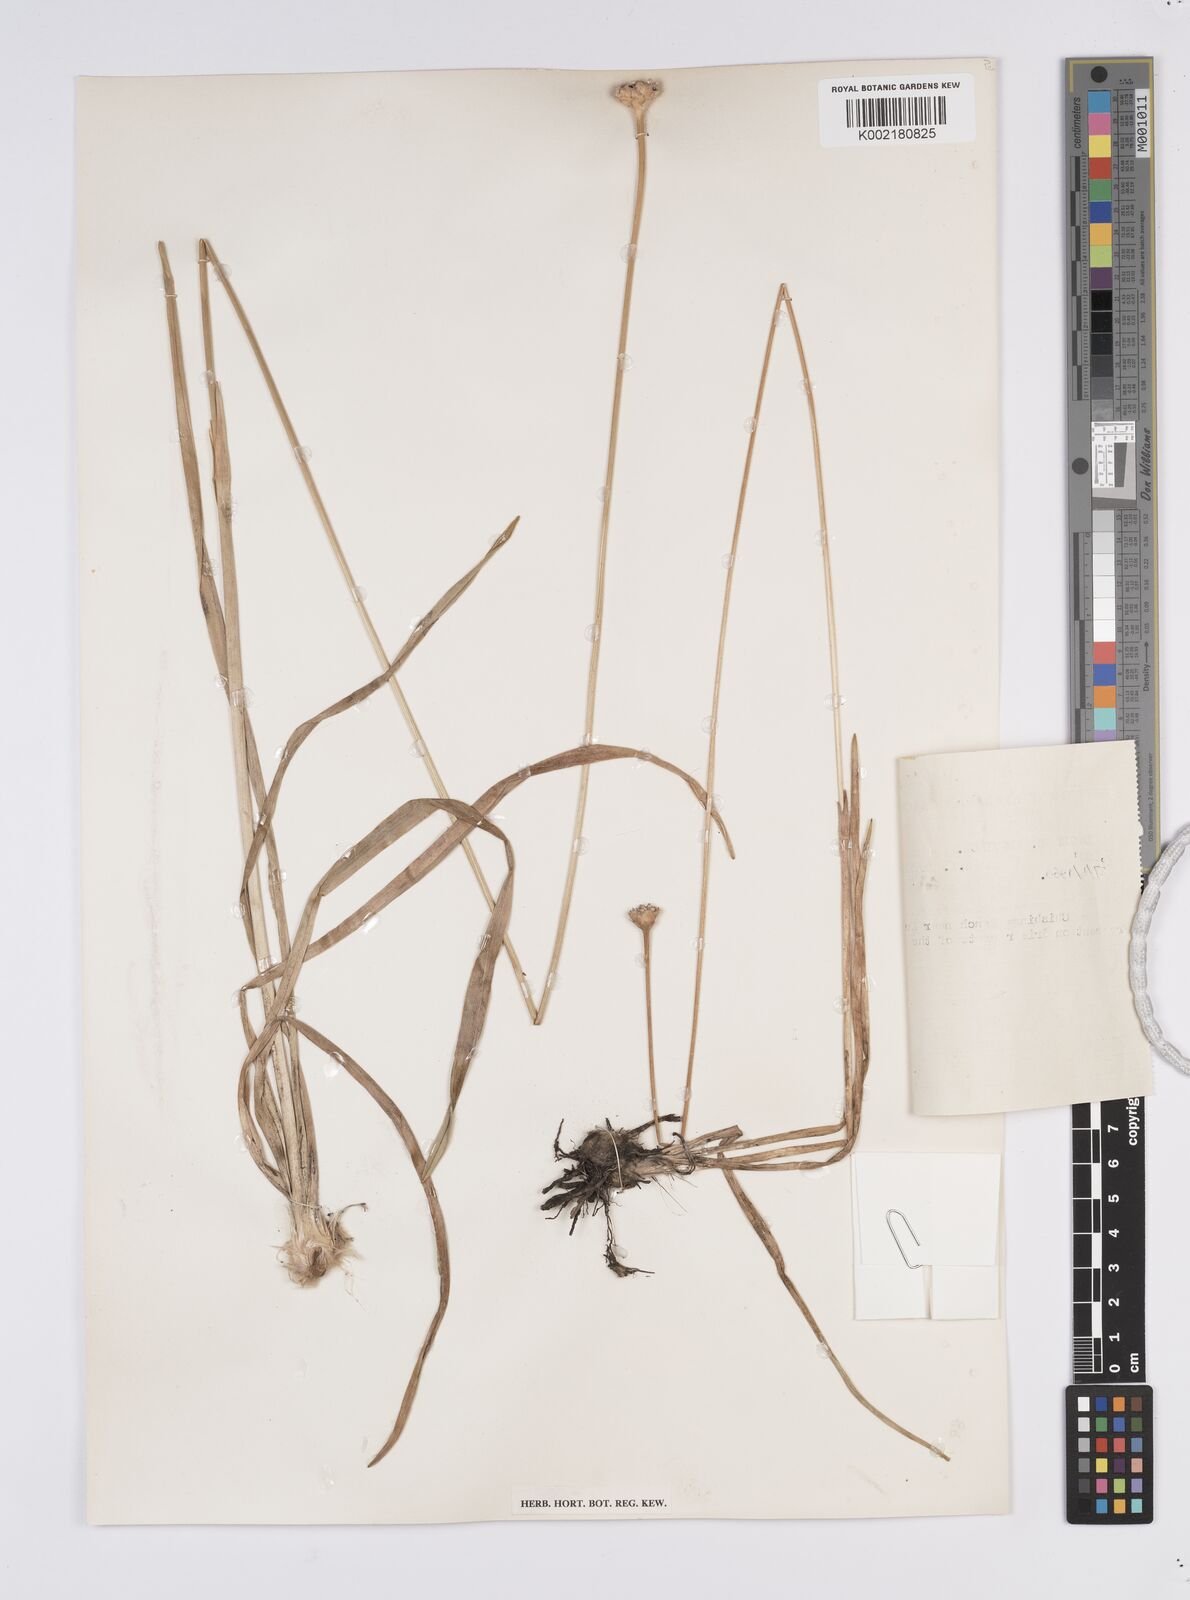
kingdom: Plantae
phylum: Tracheophyta
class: Liliopsida
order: Poales
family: Eriocaulaceae
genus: Mesanthemum
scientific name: Mesanthemum radicans
